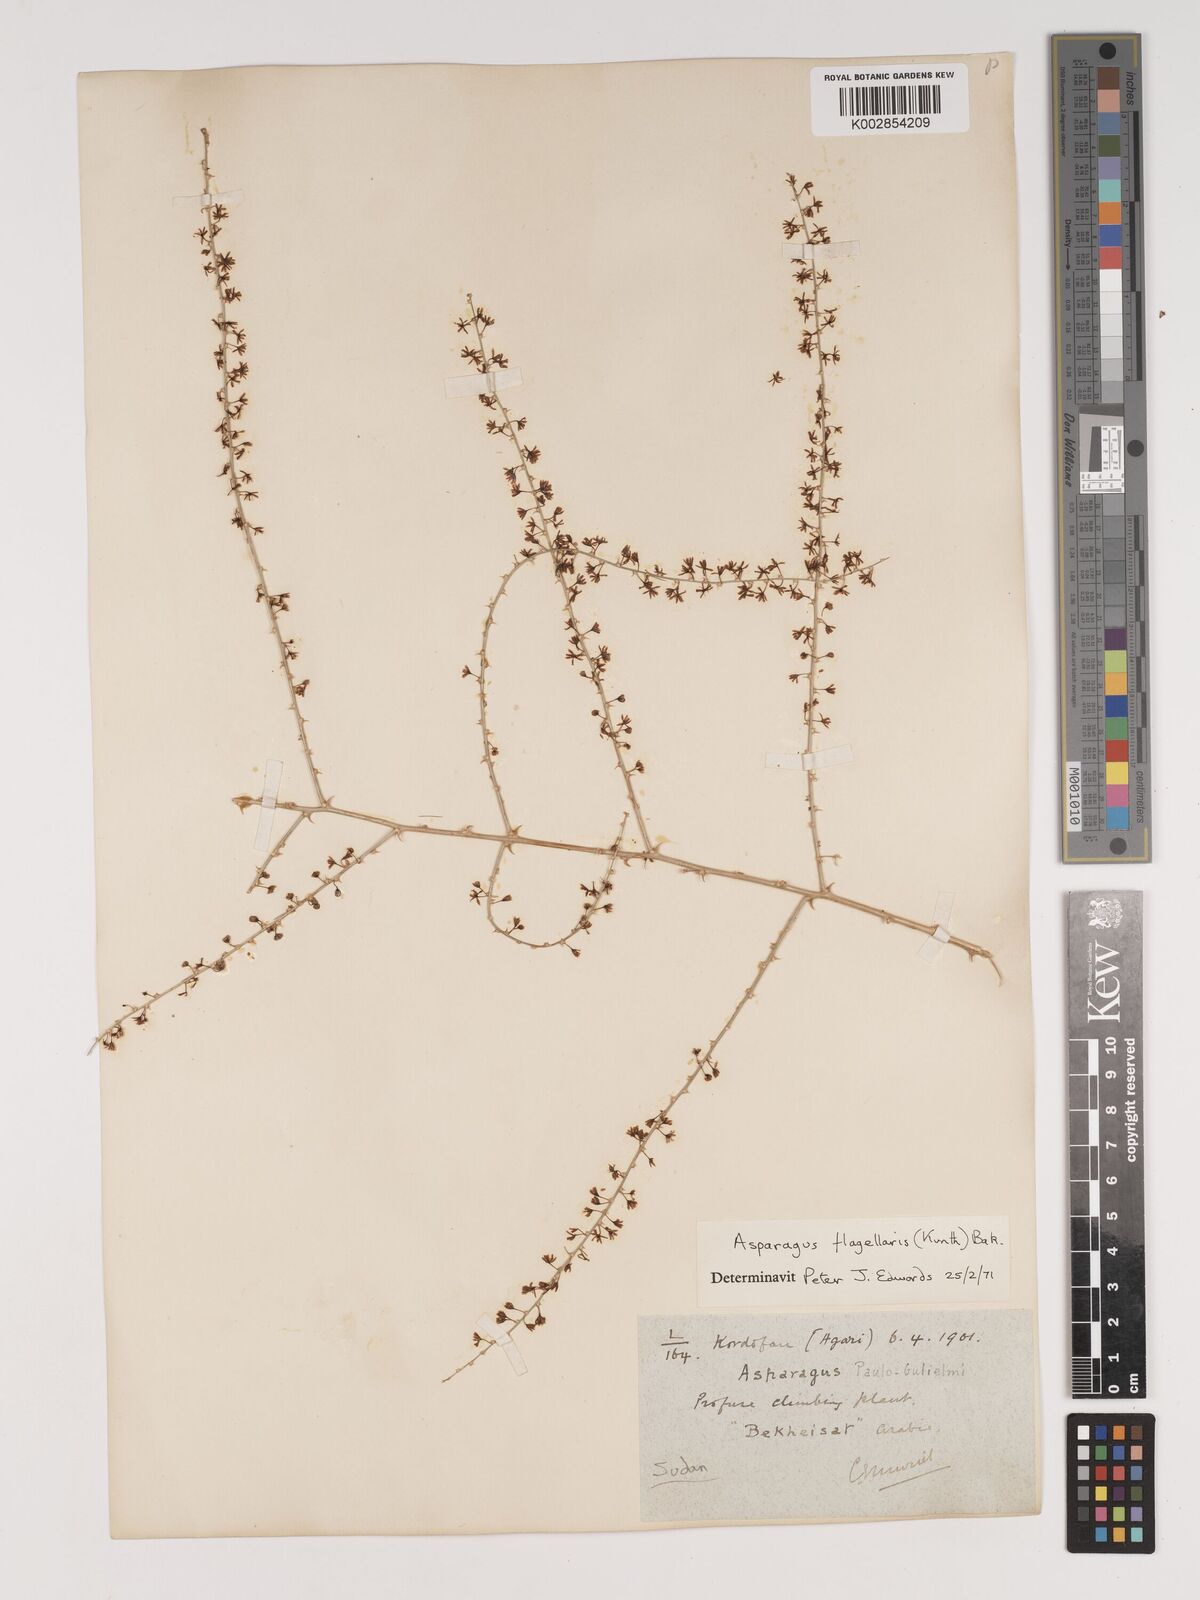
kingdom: Plantae
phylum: Tracheophyta
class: Liliopsida
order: Asparagales
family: Asparagaceae
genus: Asparagus
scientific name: Asparagus flagellaris
